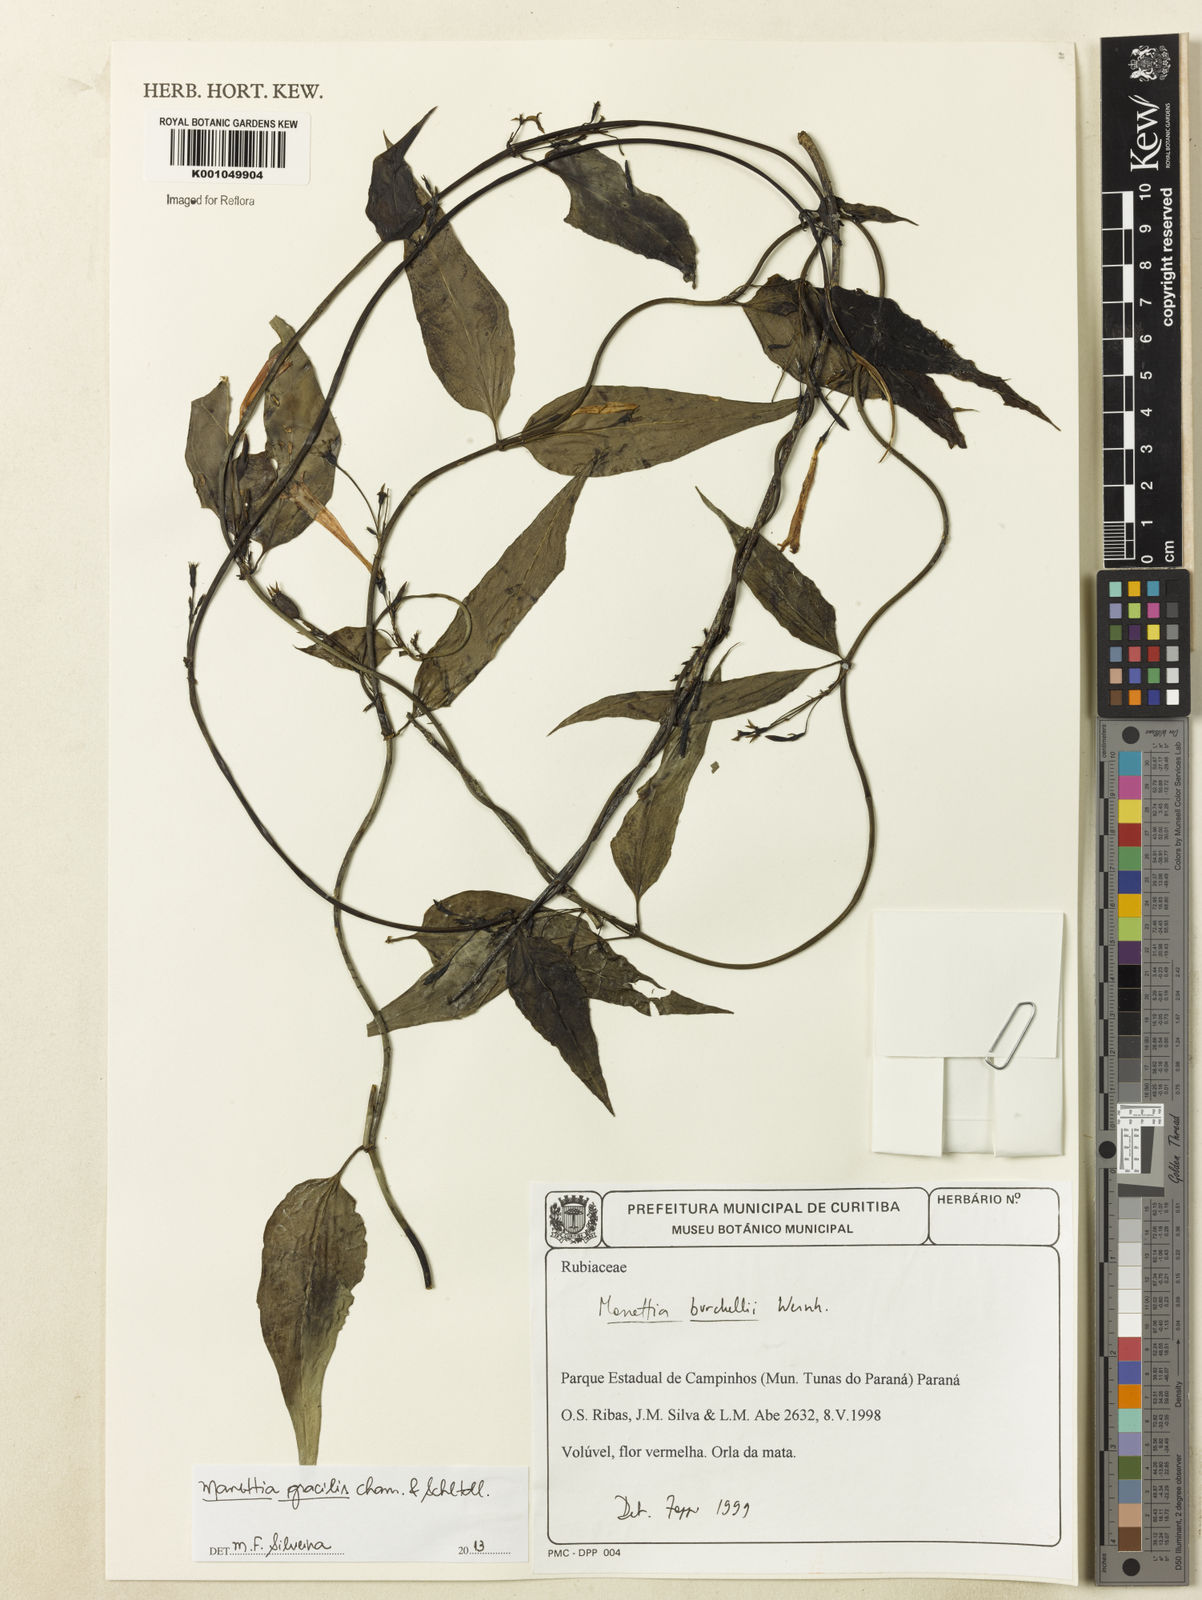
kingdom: Plantae
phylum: Tracheophyta
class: Magnoliopsida
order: Gentianales
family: Rubiaceae
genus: Manettia
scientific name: Manettia gracilis
